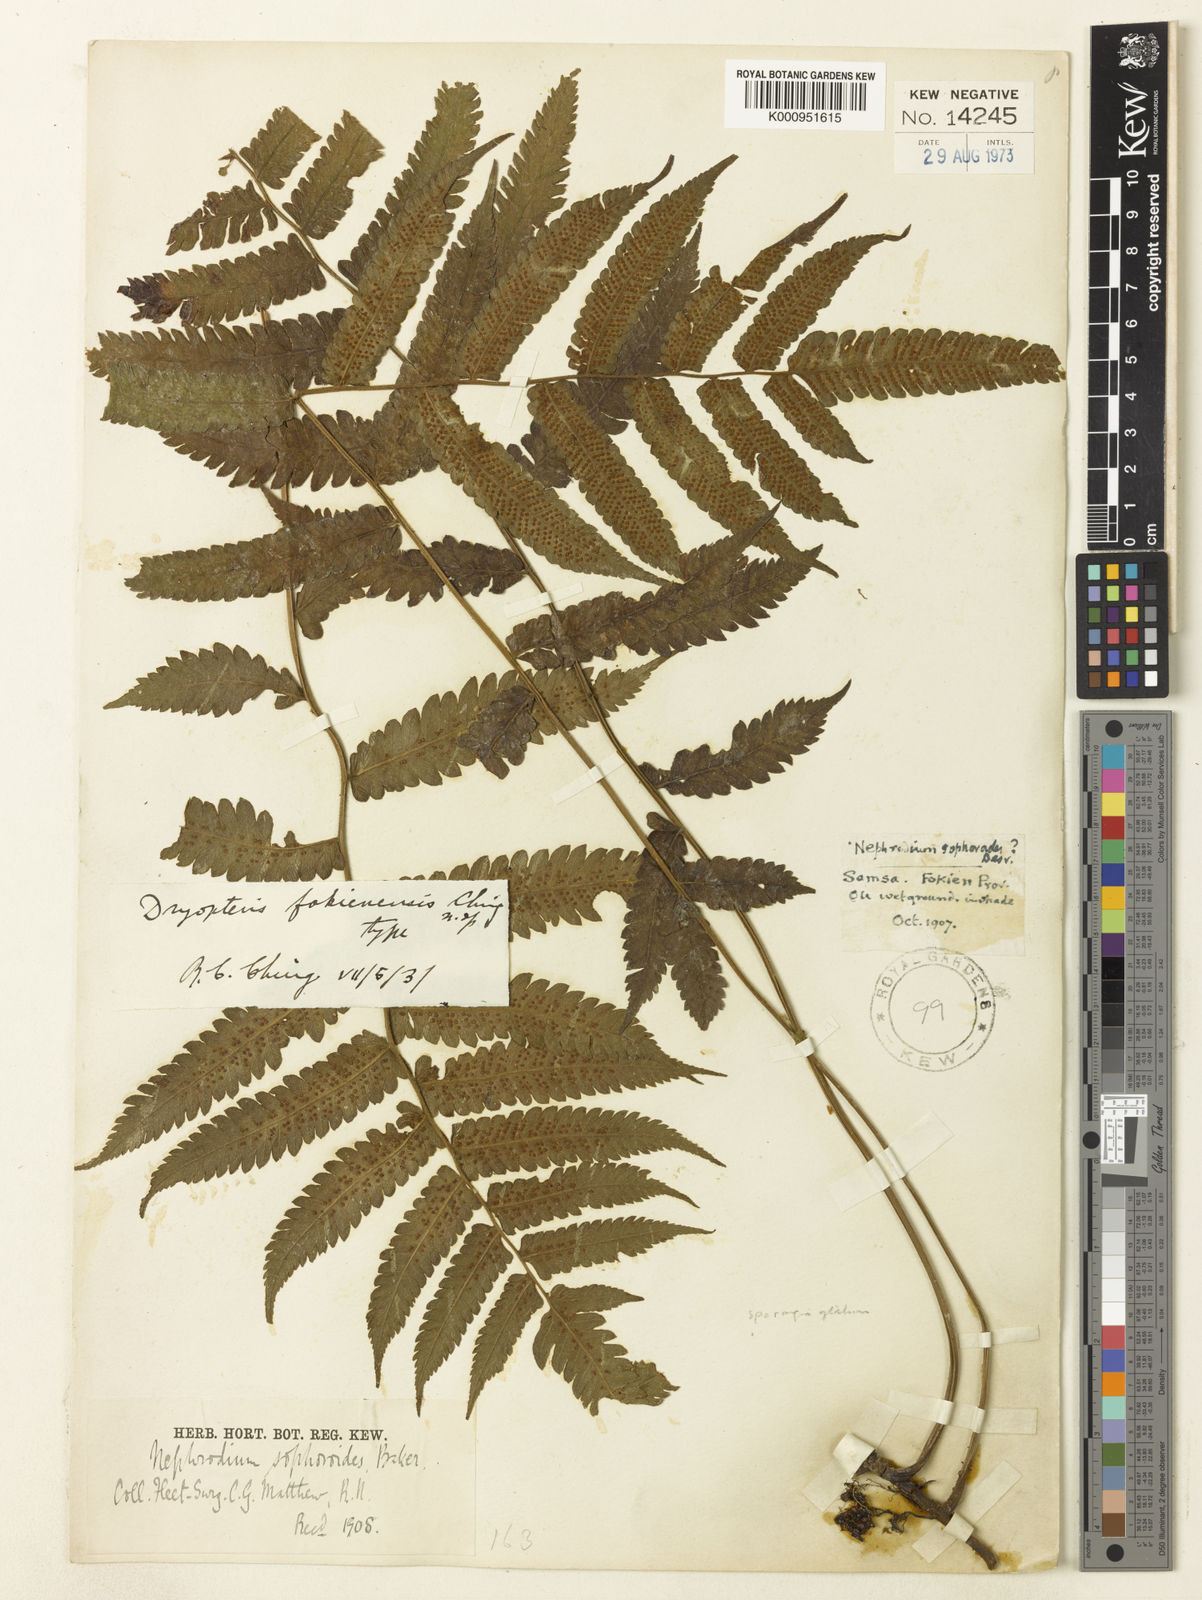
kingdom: Plantae
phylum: Tracheophyta
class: Polypodiopsida
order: Polypodiales
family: Thelypteridaceae
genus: Christella
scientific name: Christella fukienensis
